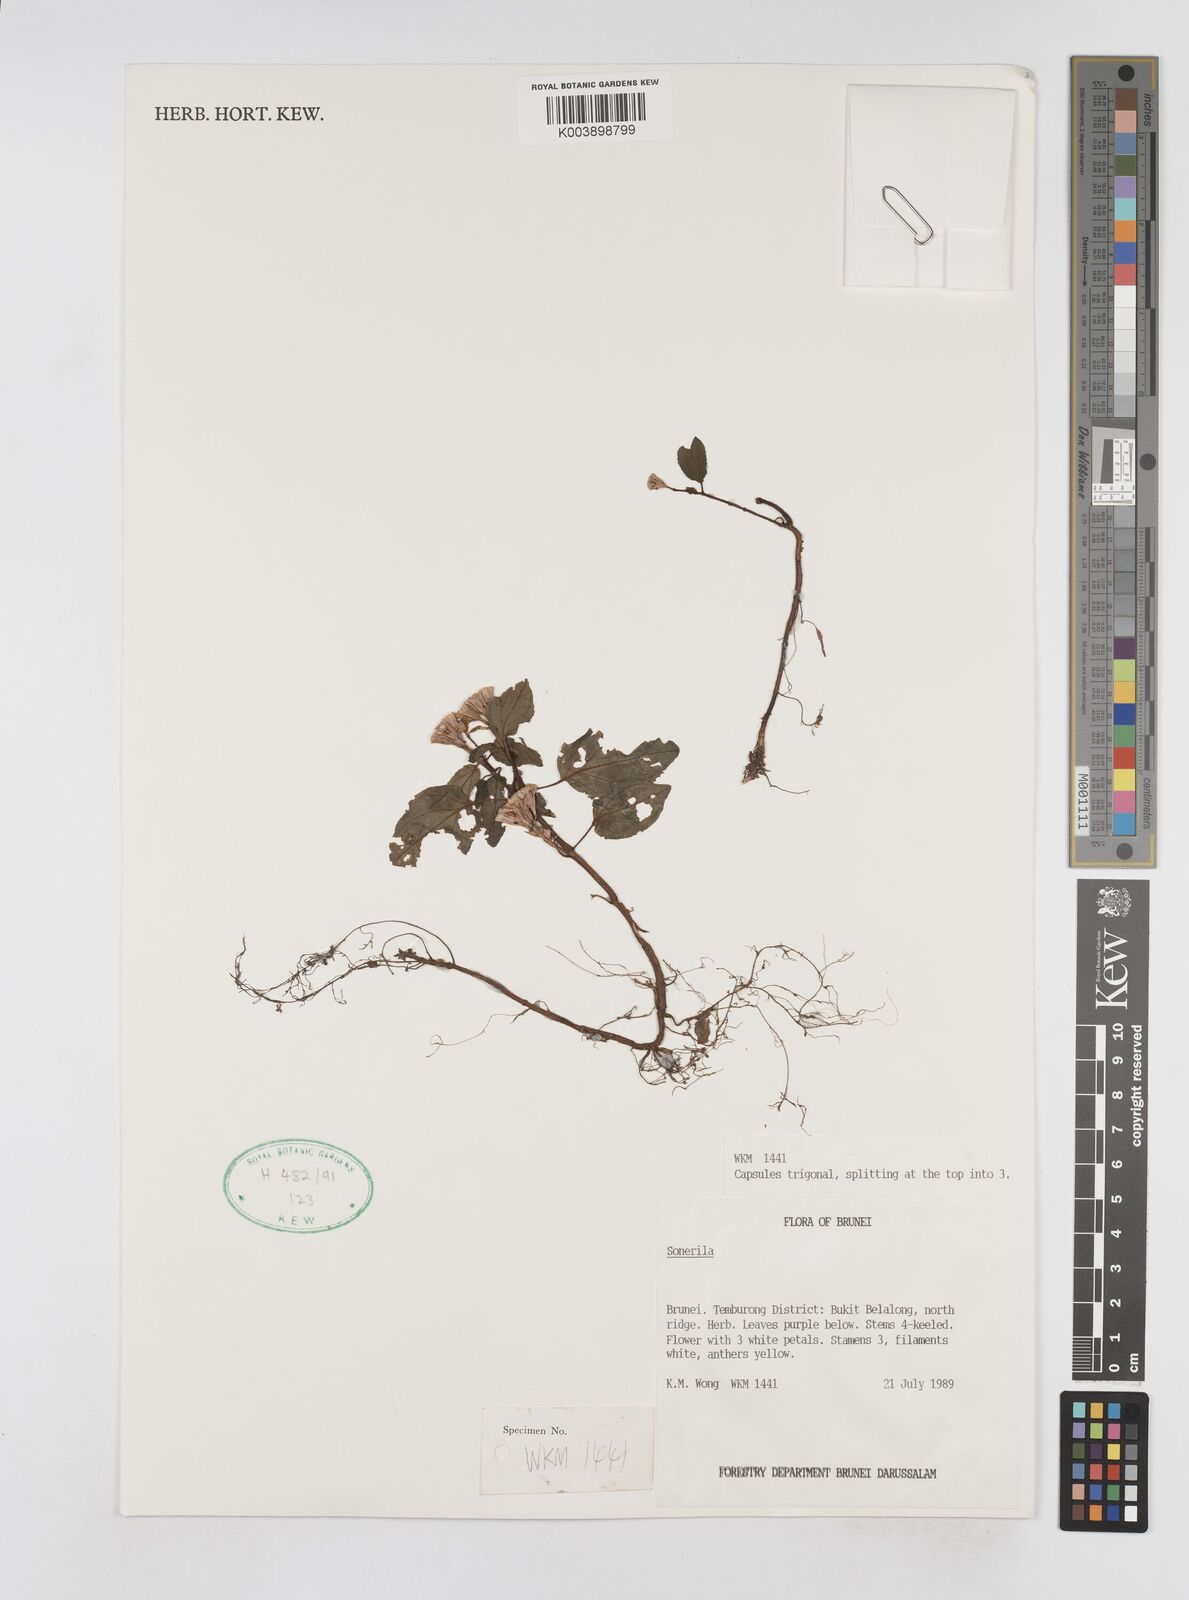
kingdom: Plantae
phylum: Tracheophyta
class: Magnoliopsida
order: Myrtales
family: Melastomataceae
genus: Sonerila
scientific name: Sonerila
